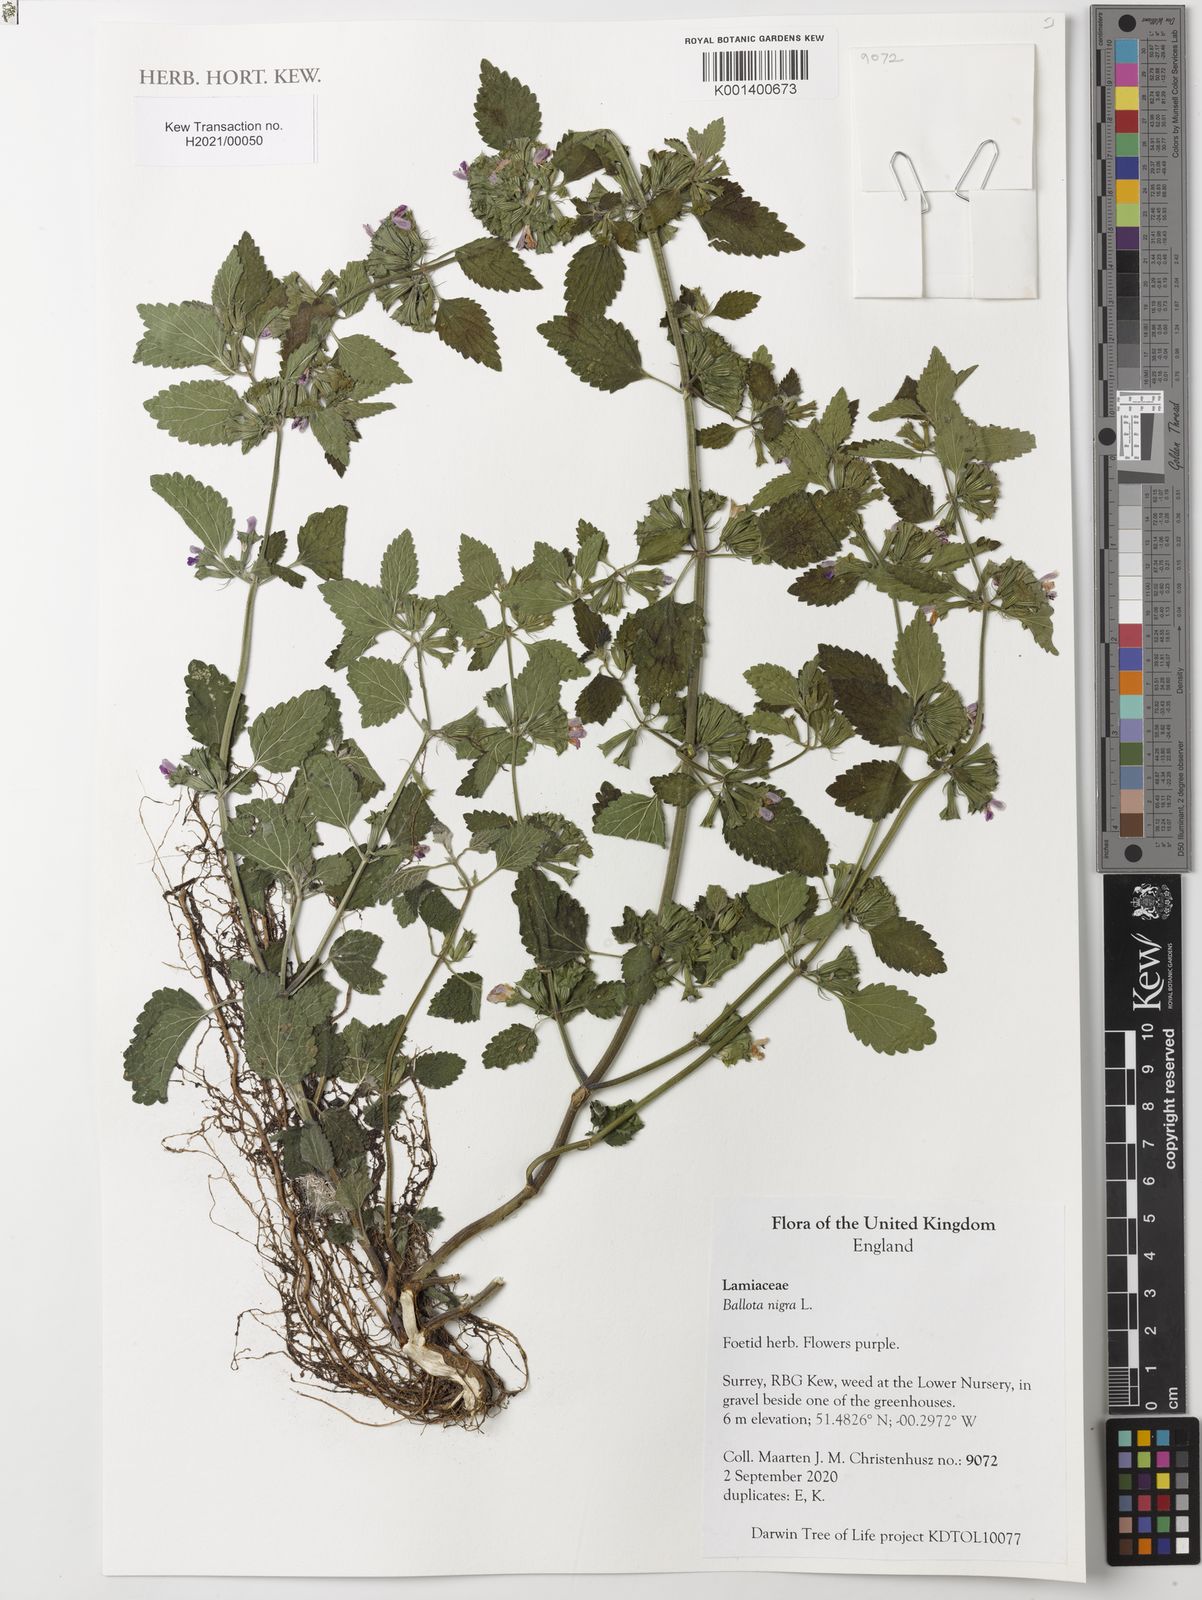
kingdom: Plantae
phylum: Tracheophyta
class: Magnoliopsida
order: Lamiales
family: Lamiaceae
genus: Ballota
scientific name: Ballota nigra
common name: Black horehound
